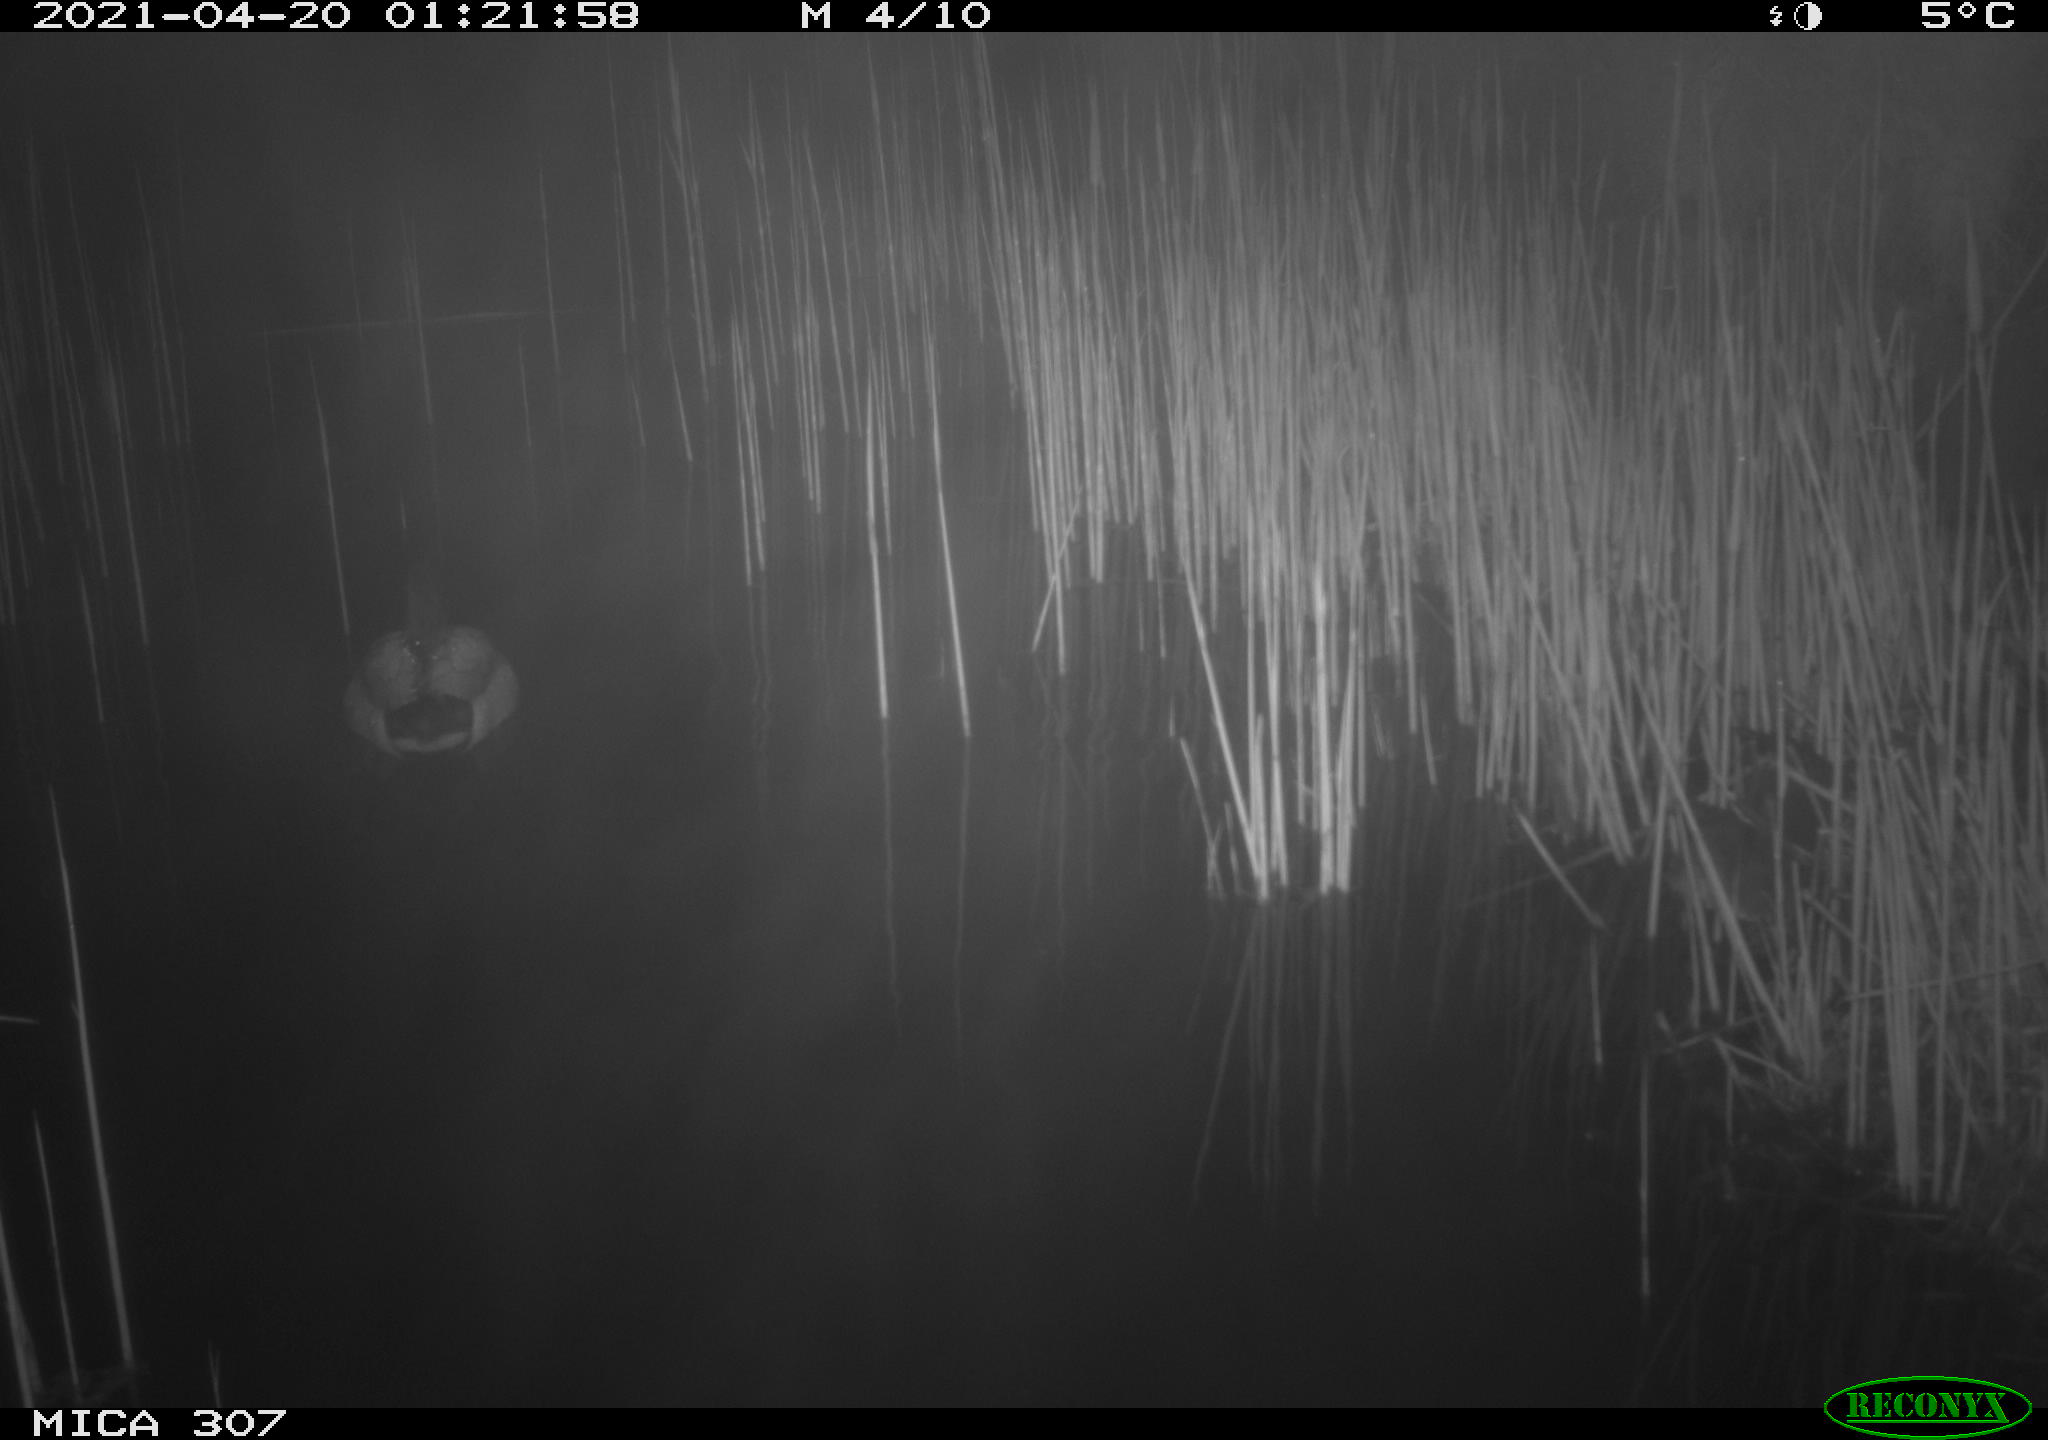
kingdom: Animalia
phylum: Chordata
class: Aves
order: Anseriformes
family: Anatidae
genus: Anas
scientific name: Anas platyrhynchos
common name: Mallard
